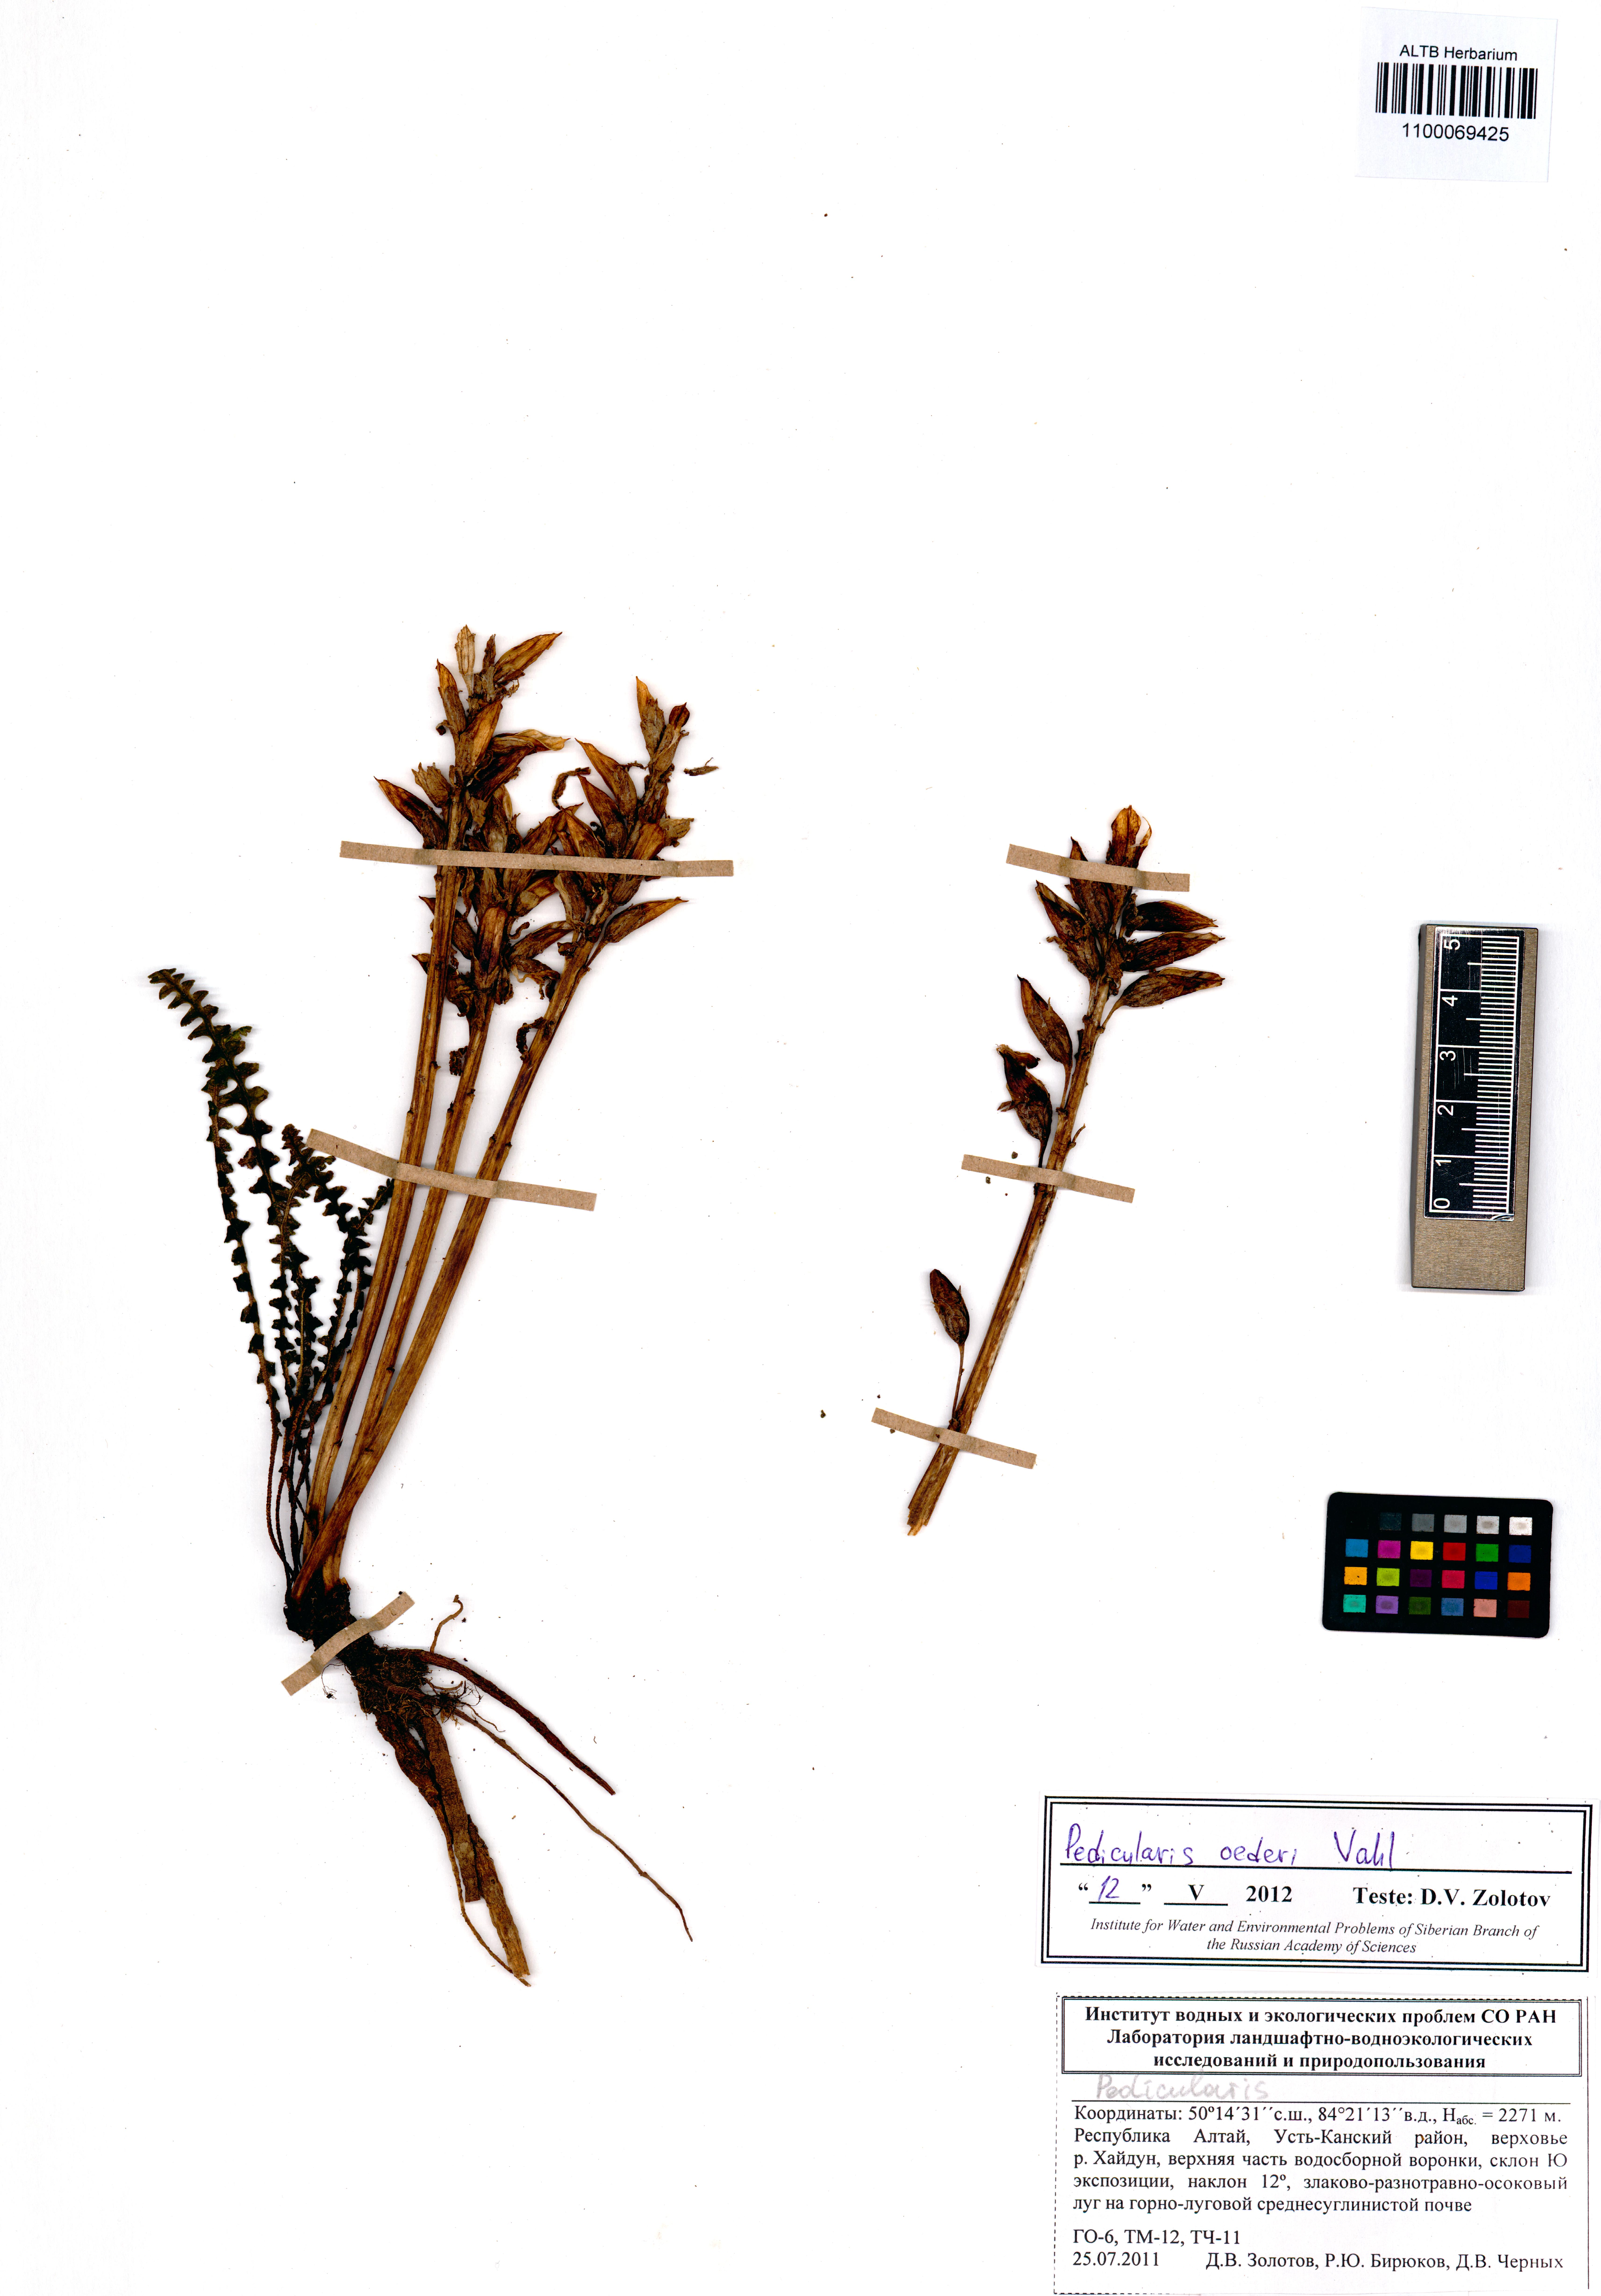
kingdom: Plantae
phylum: Tracheophyta
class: Magnoliopsida
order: Lamiales
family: Orobanchaceae
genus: Pedicularis
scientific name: Pedicularis oederi
